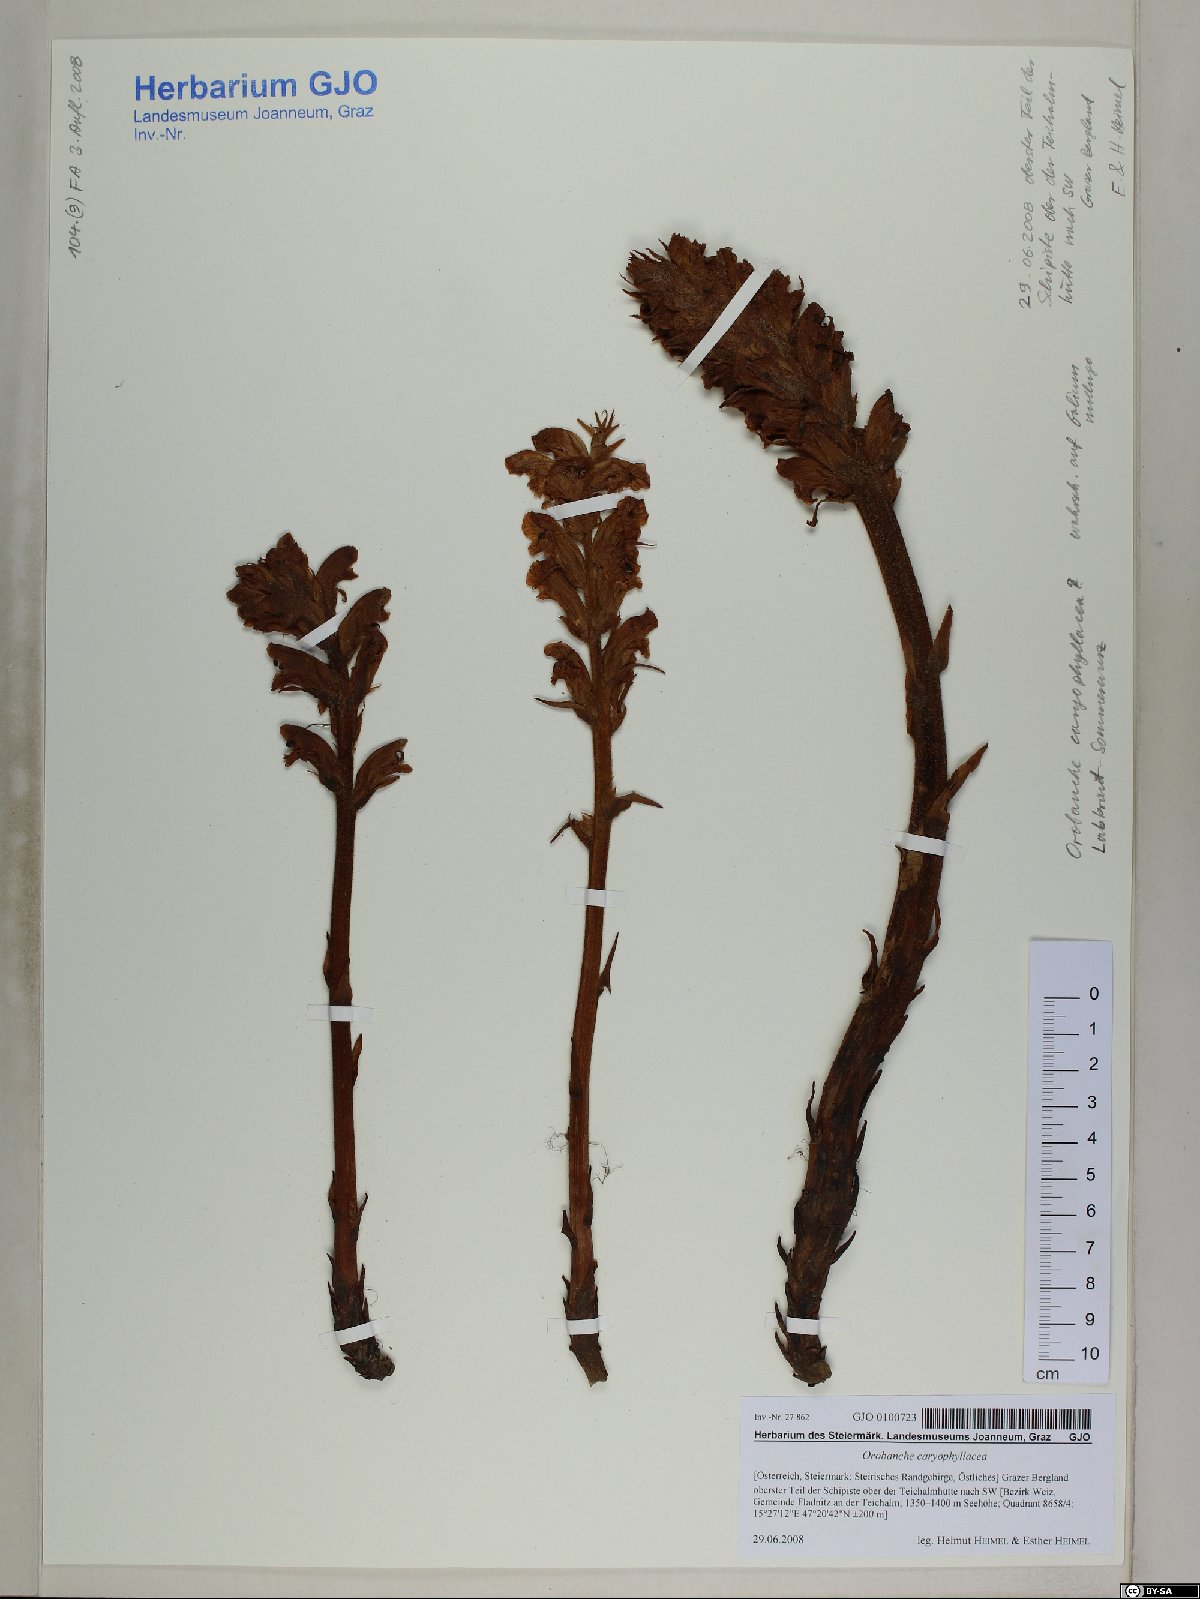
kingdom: Plantae
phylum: Tracheophyta
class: Magnoliopsida
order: Lamiales
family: Orobanchaceae
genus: Orobanche
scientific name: Orobanche caryophyllacea
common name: Bedstraw broomrape
